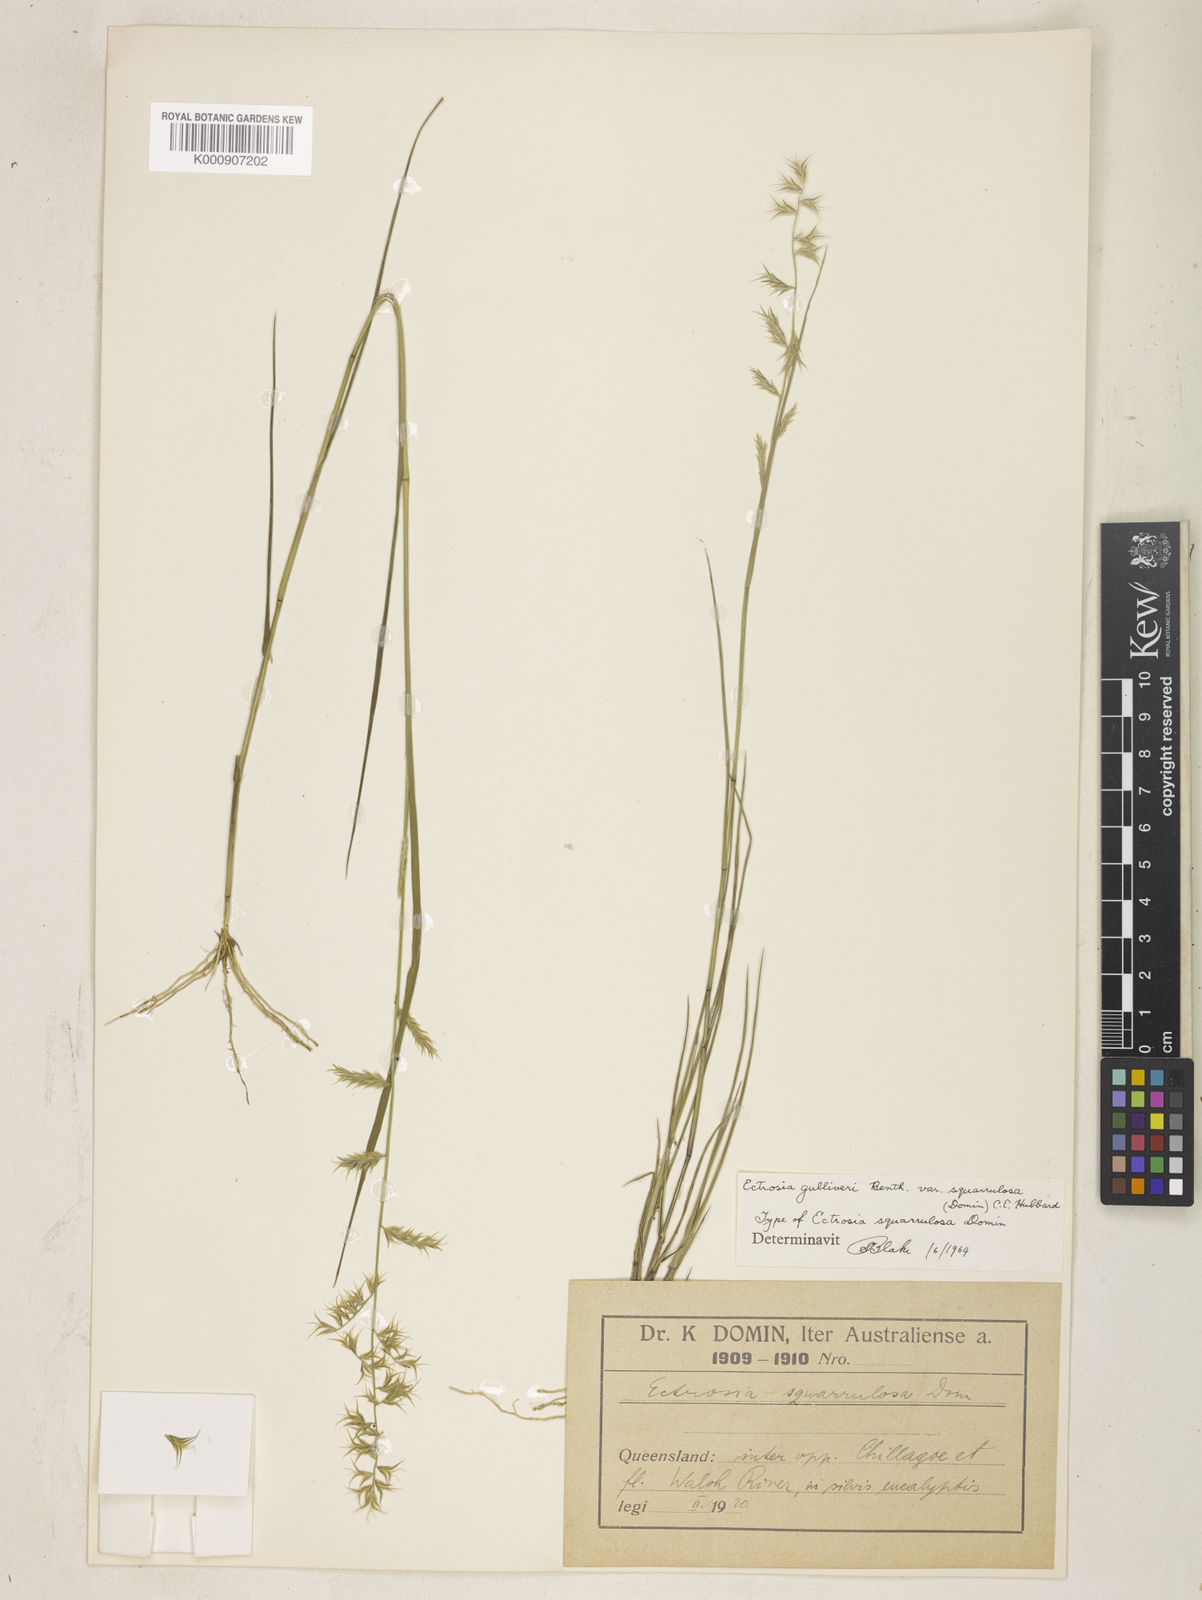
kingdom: Plantae
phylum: Tracheophyta
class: Liliopsida
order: Poales
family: Poaceae
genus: Eragrostis
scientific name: Eragrostis gulliveri
